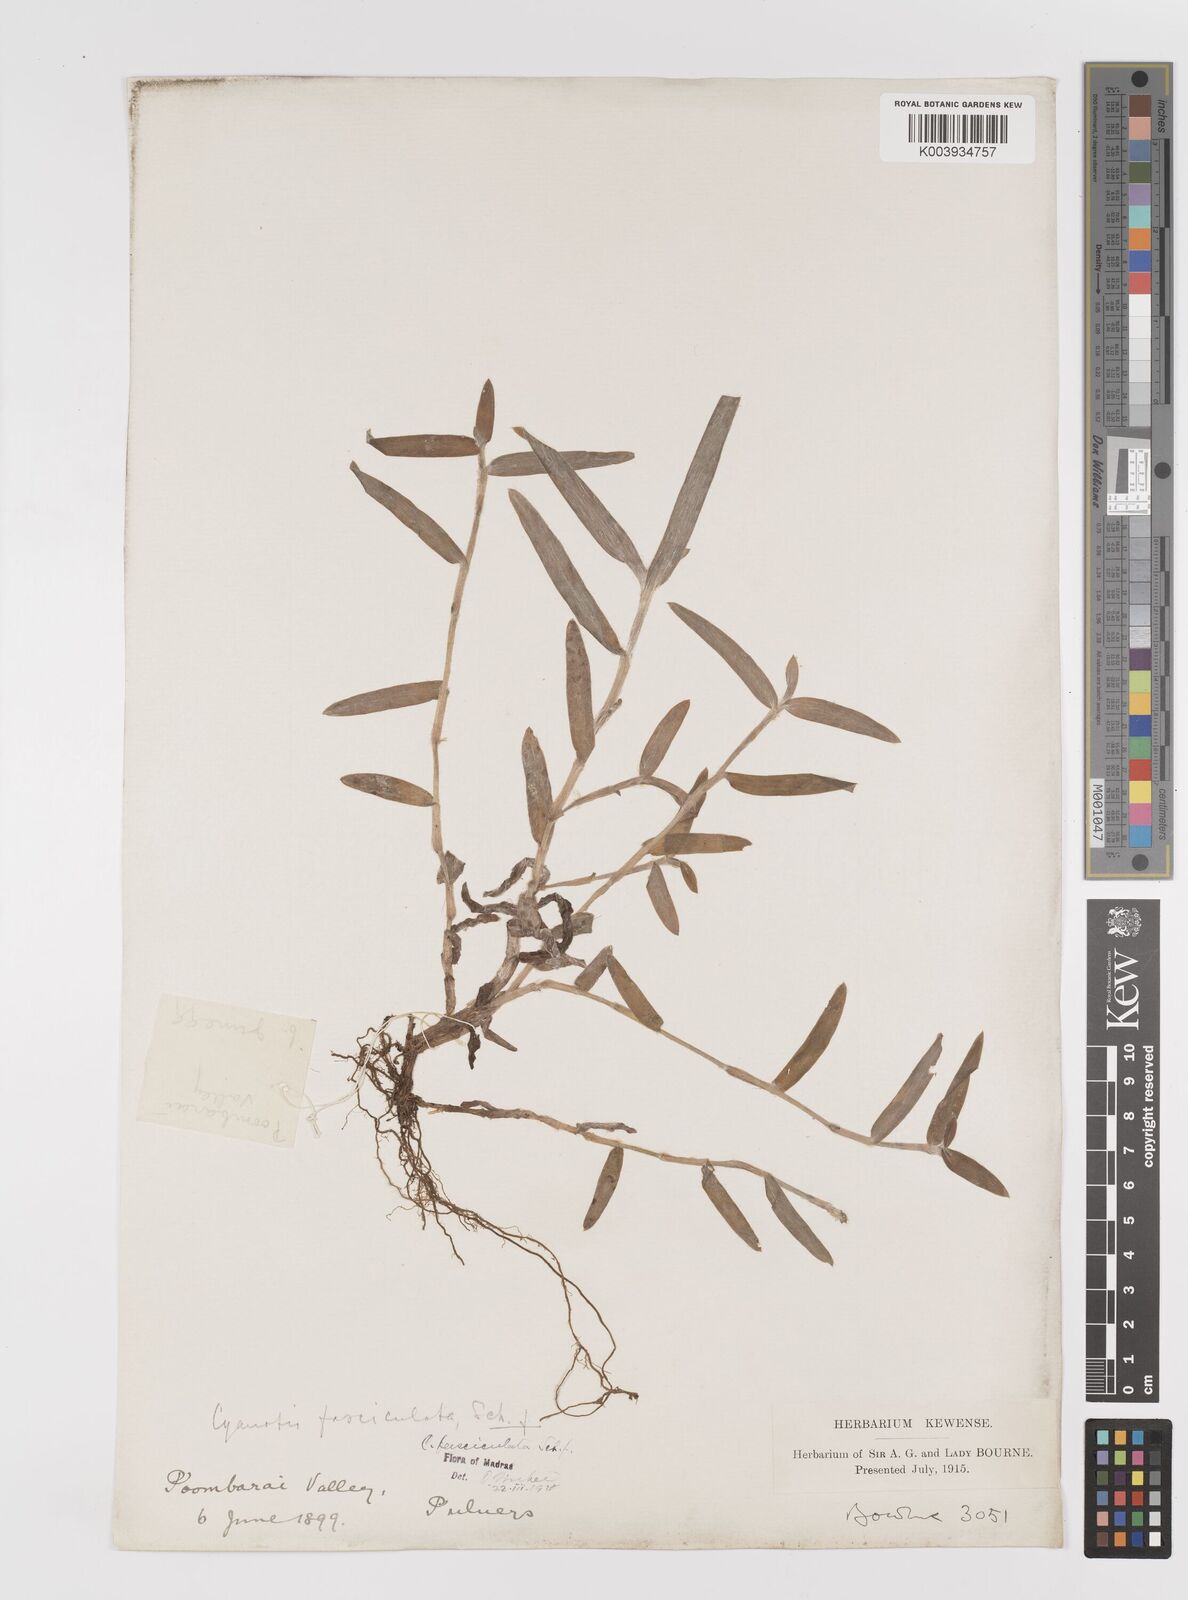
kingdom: Plantae
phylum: Tracheophyta
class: Liliopsida
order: Commelinales
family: Commelinaceae
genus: Cyanotis
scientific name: Cyanotis fasciculata
